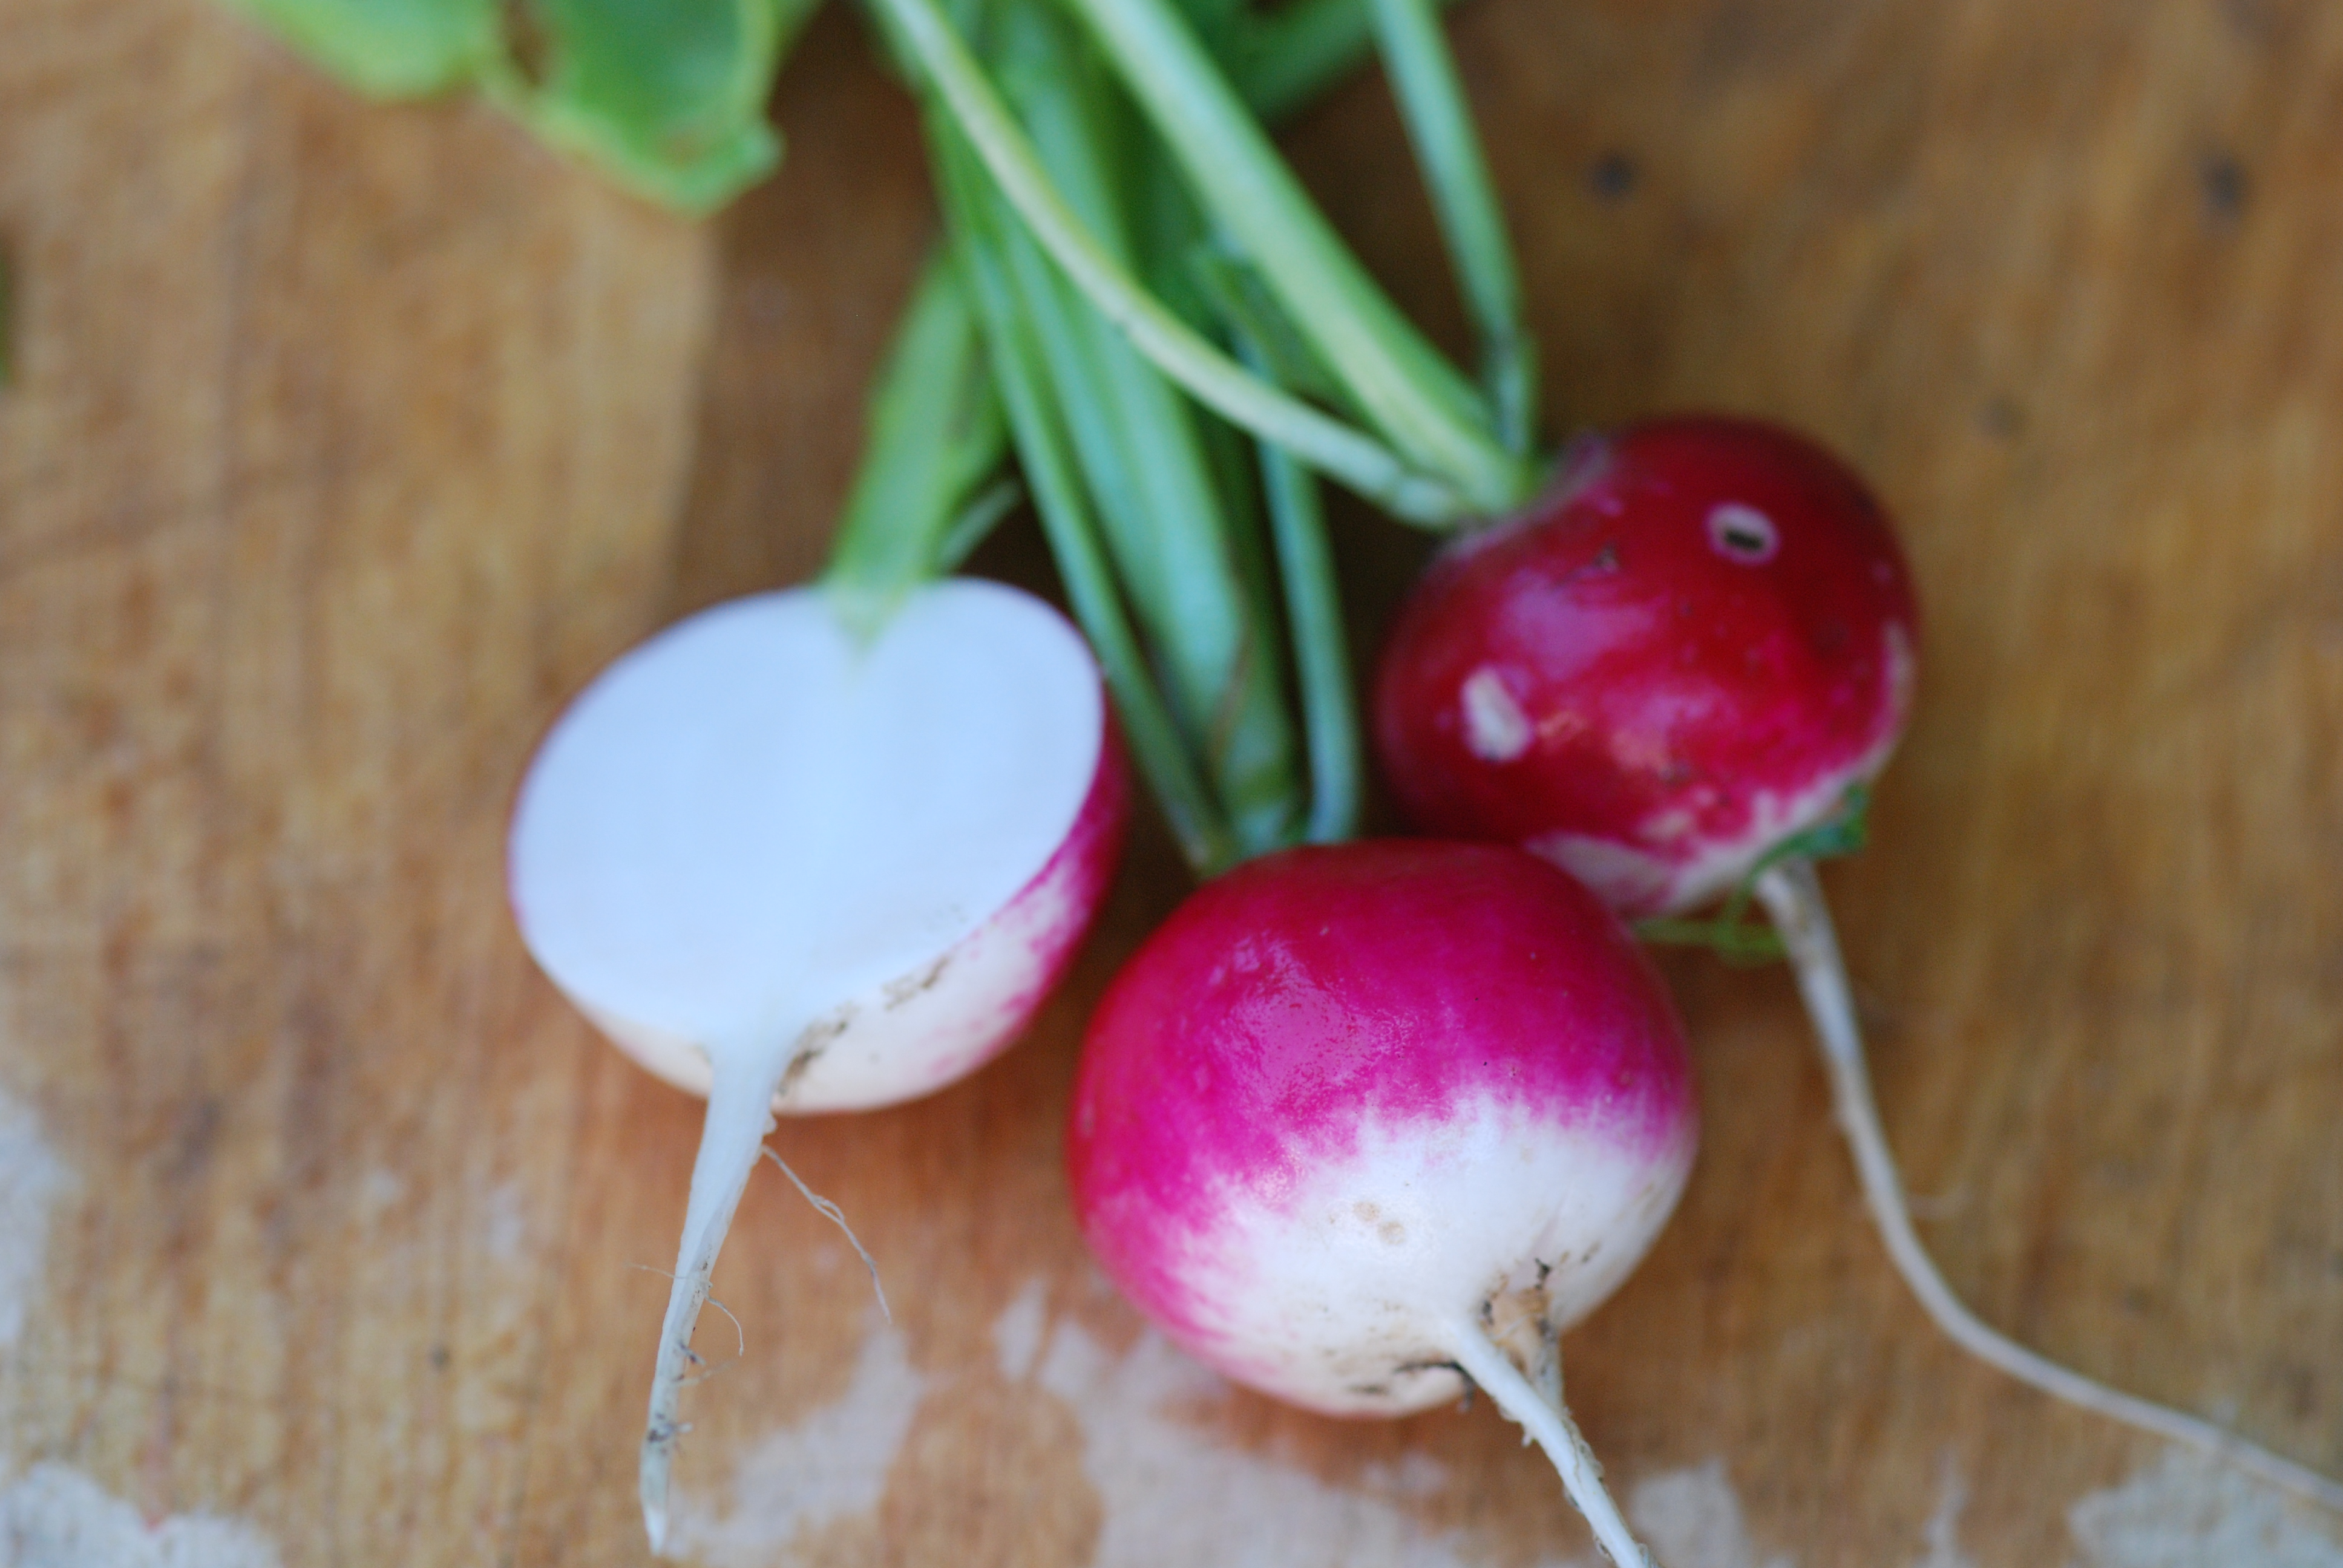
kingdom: Plantae
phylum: Tracheophyta
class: Magnoliopsida
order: Brassicales
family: Brassicaceae
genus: Raphanus
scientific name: Raphanus sativus
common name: Cultivated radish
